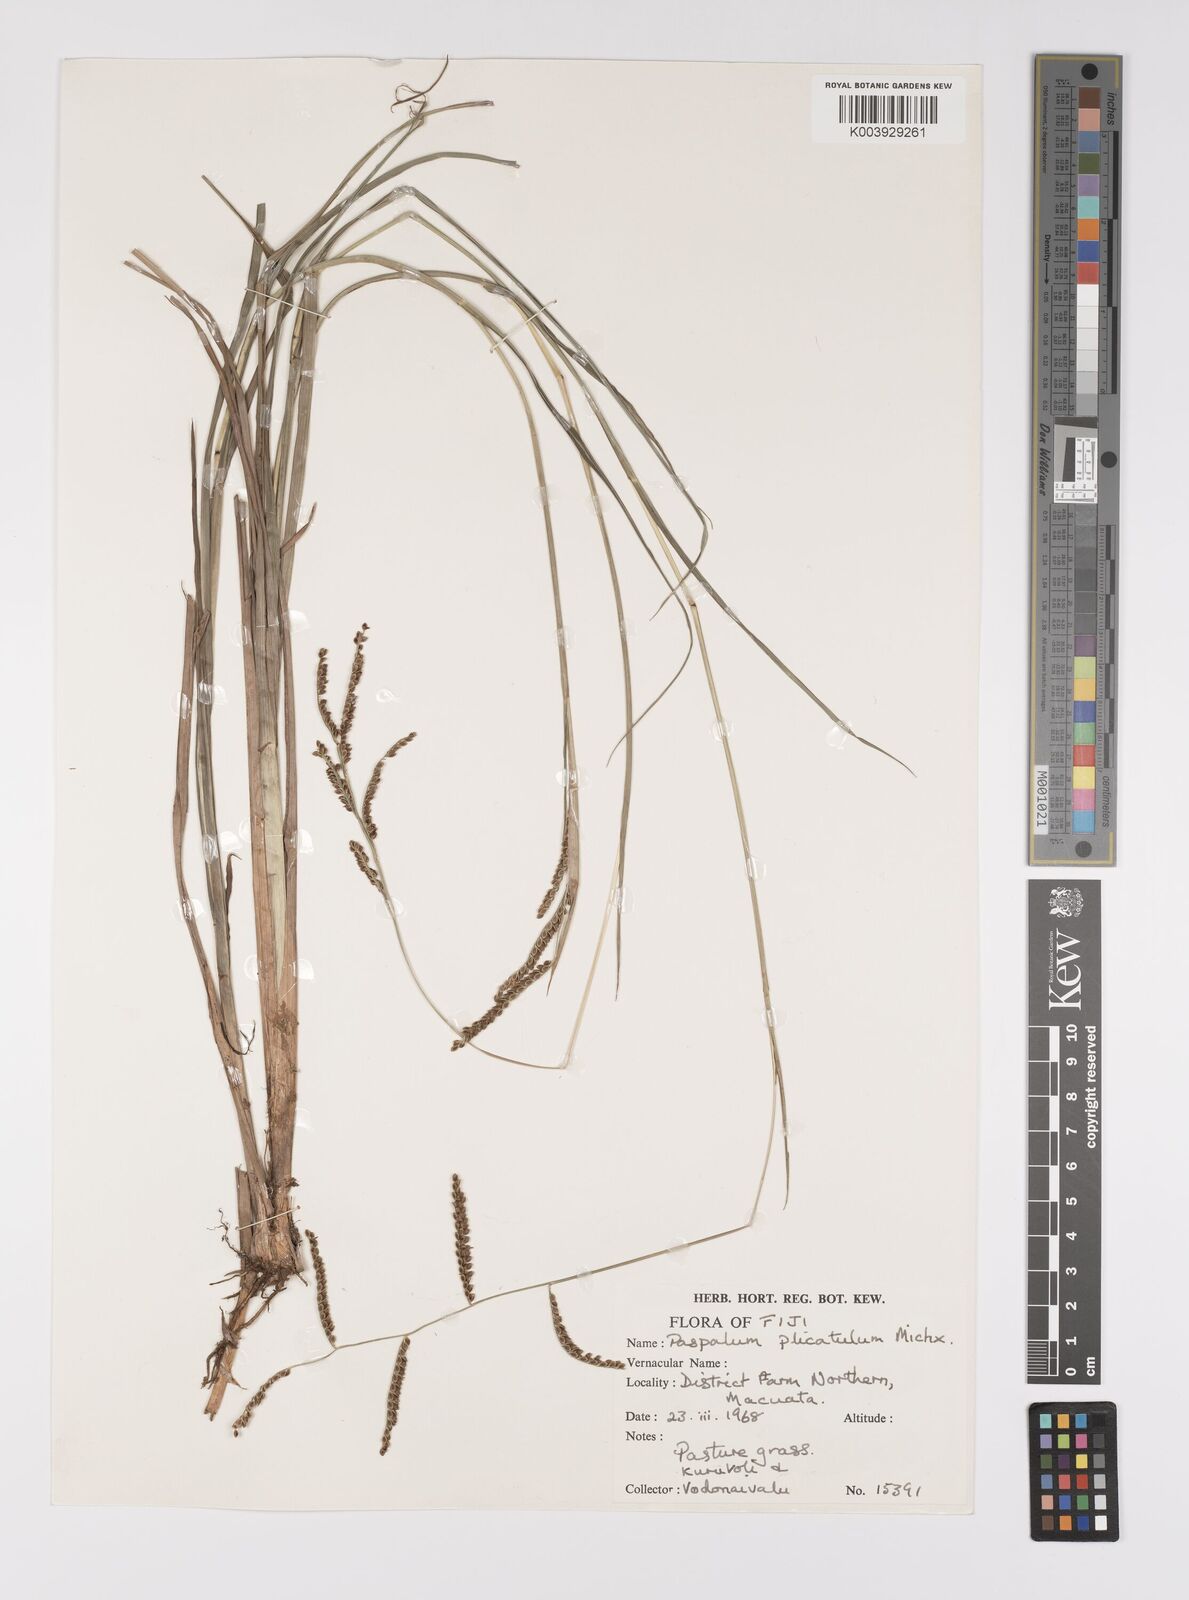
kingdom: Plantae
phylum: Tracheophyta
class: Liliopsida
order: Poales
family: Poaceae
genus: Paspalum
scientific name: Paspalum plicatulum
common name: Top paspalum
